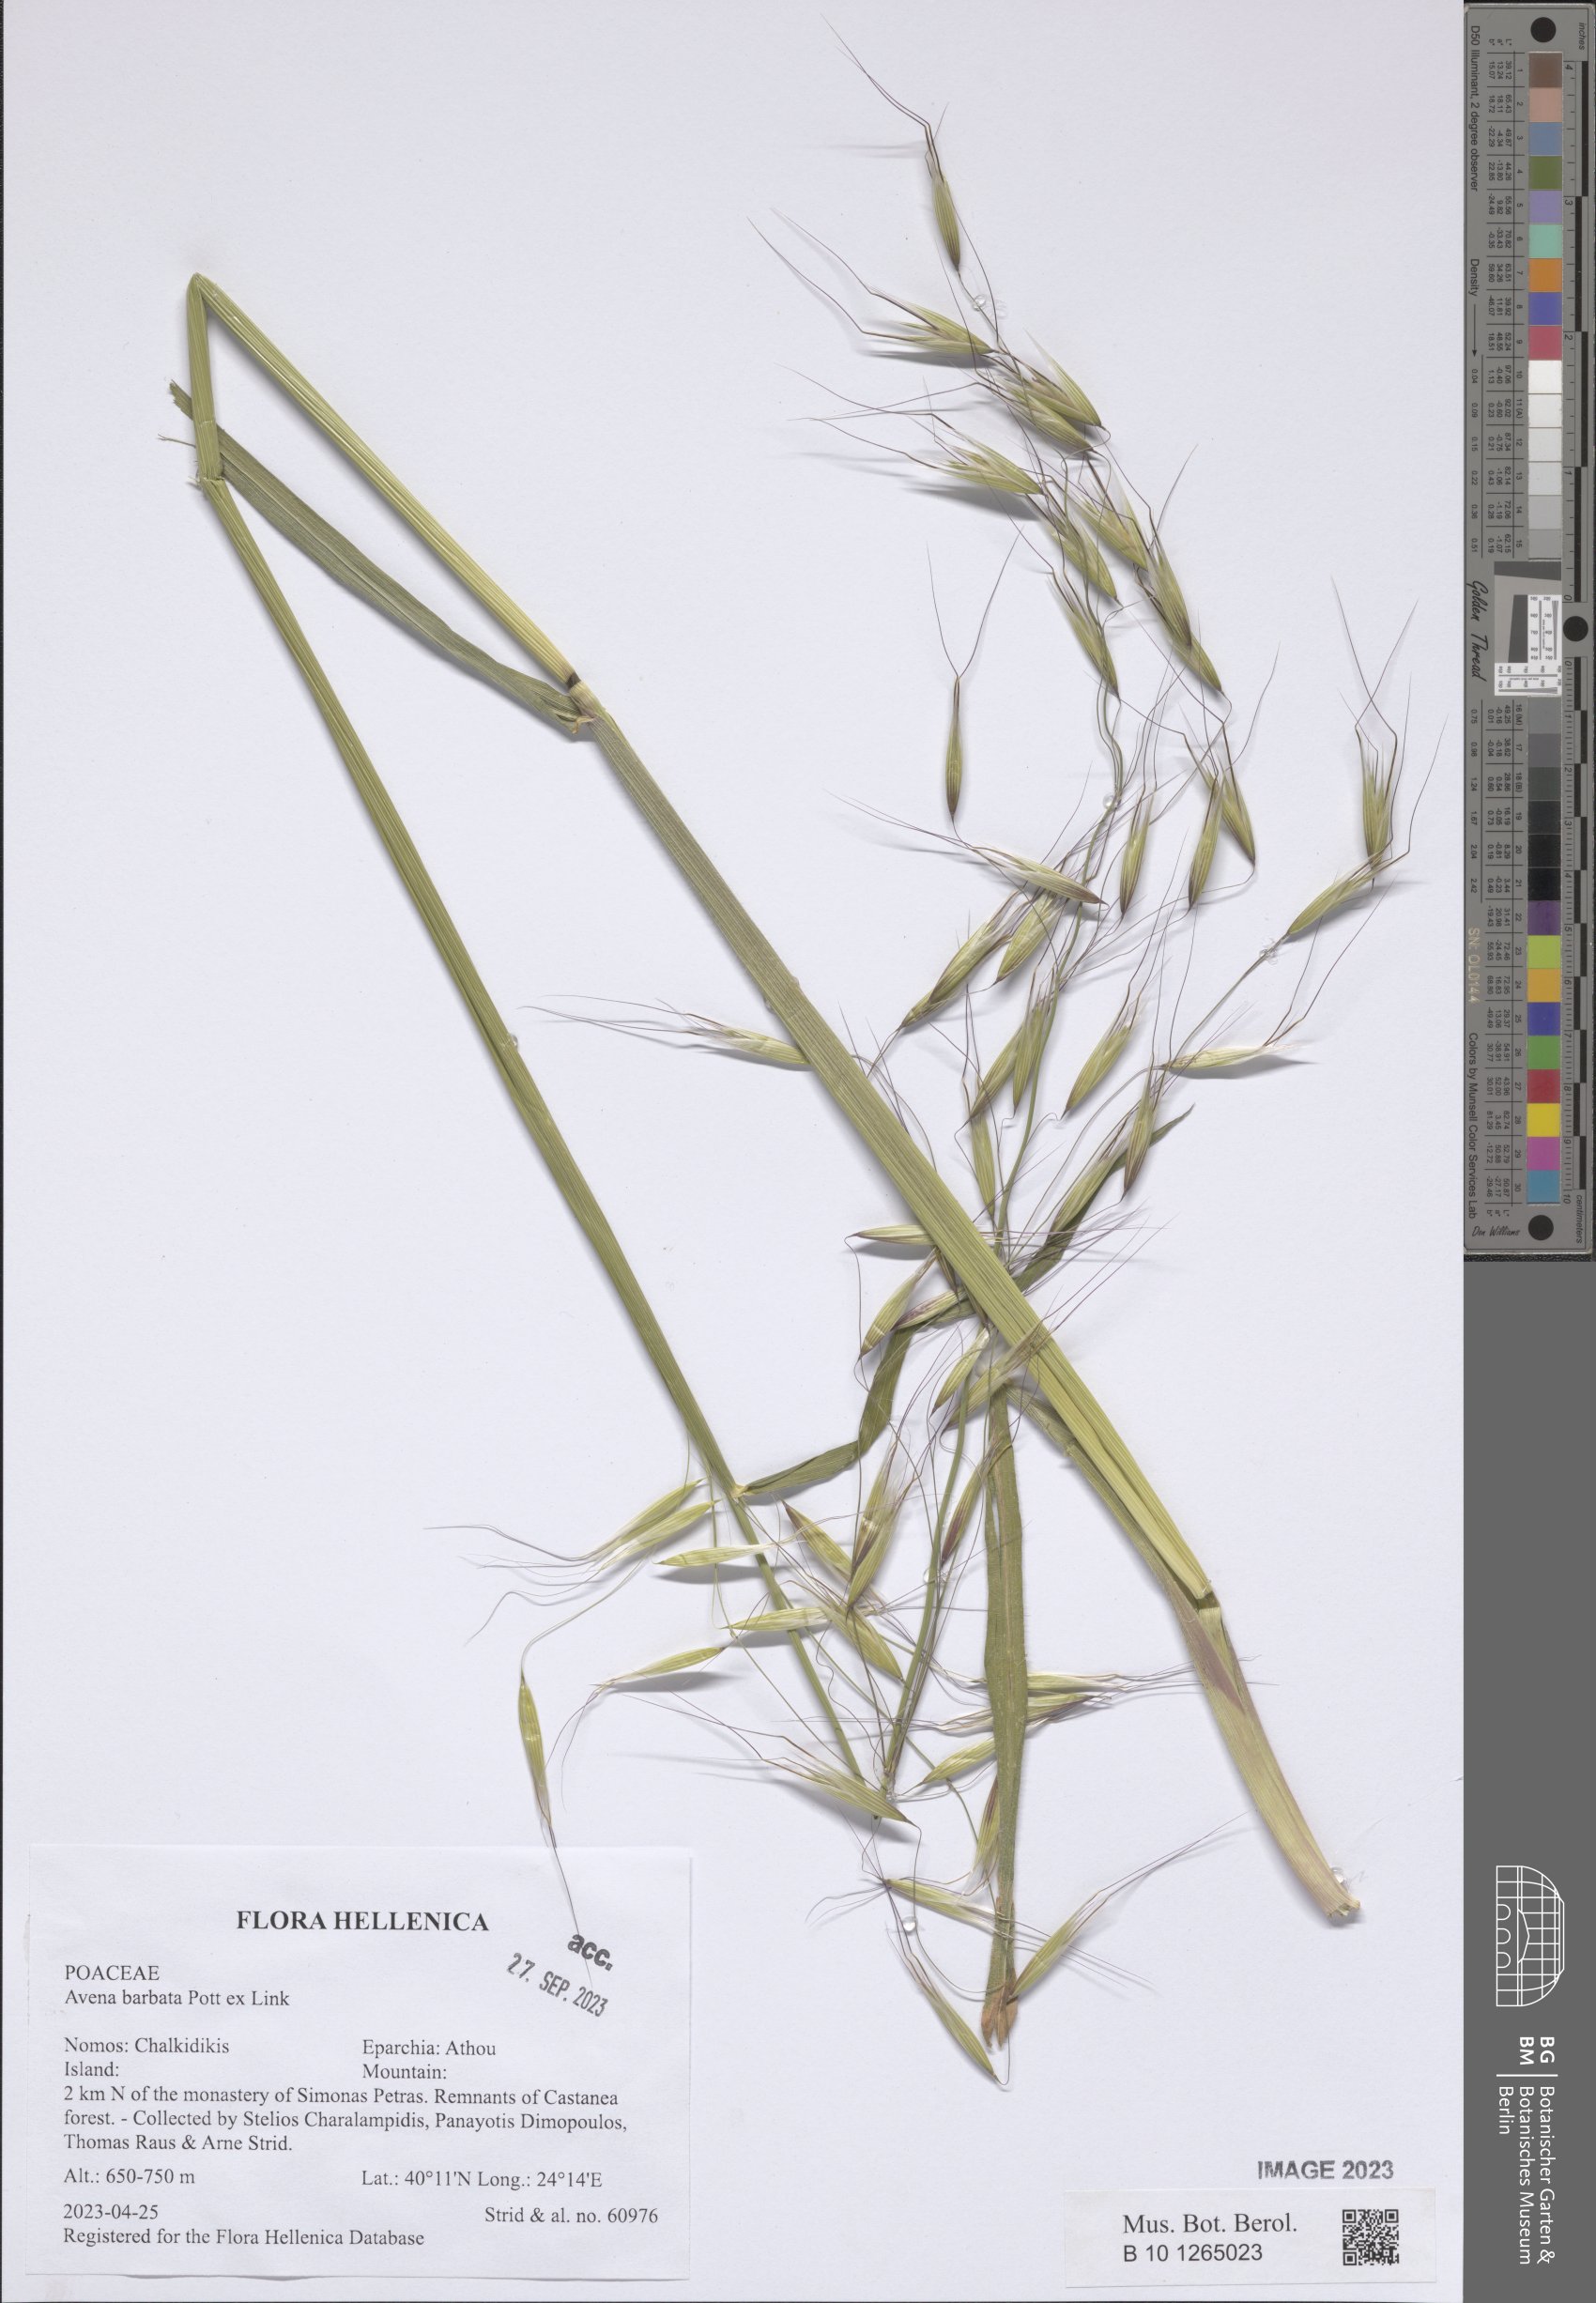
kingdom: Plantae
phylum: Tracheophyta
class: Liliopsida
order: Poales
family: Poaceae
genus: Avena
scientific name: Avena barbata
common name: Slender oat
